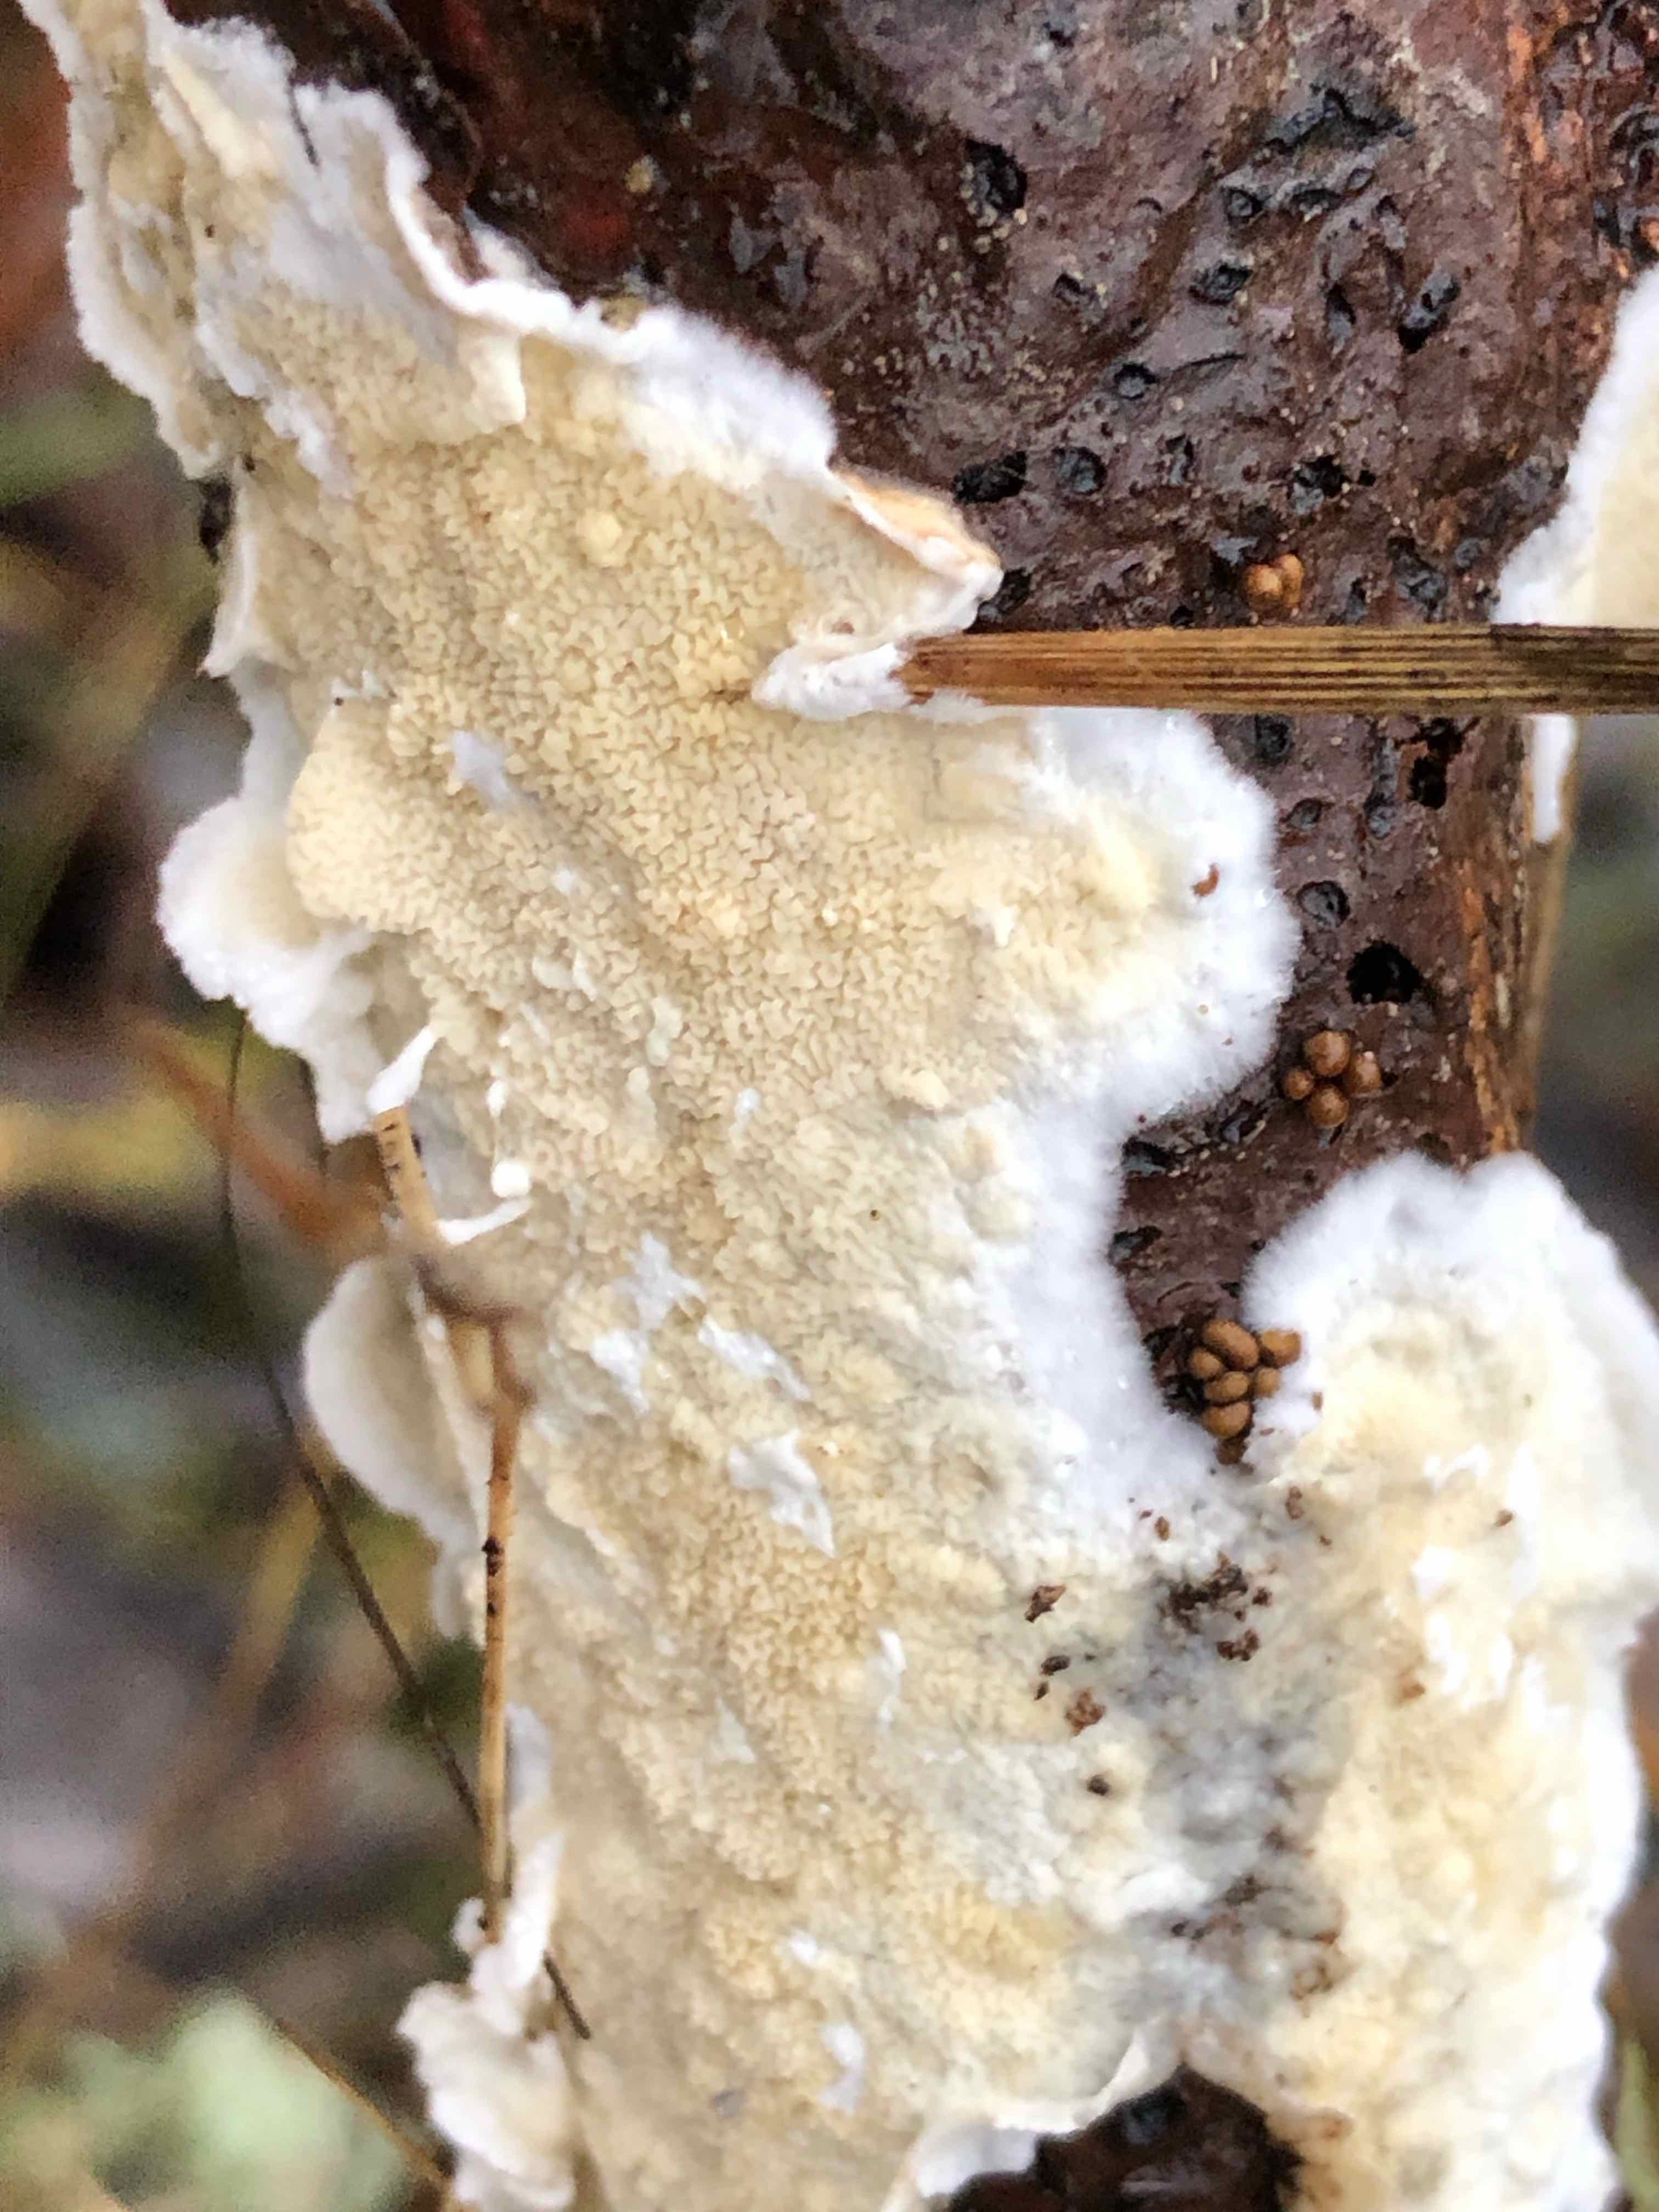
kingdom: Fungi
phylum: Basidiomycota
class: Agaricomycetes
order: Polyporales
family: Irpicaceae
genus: Byssomerulius
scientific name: Byssomerulius corium
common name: læder-åresvamp
